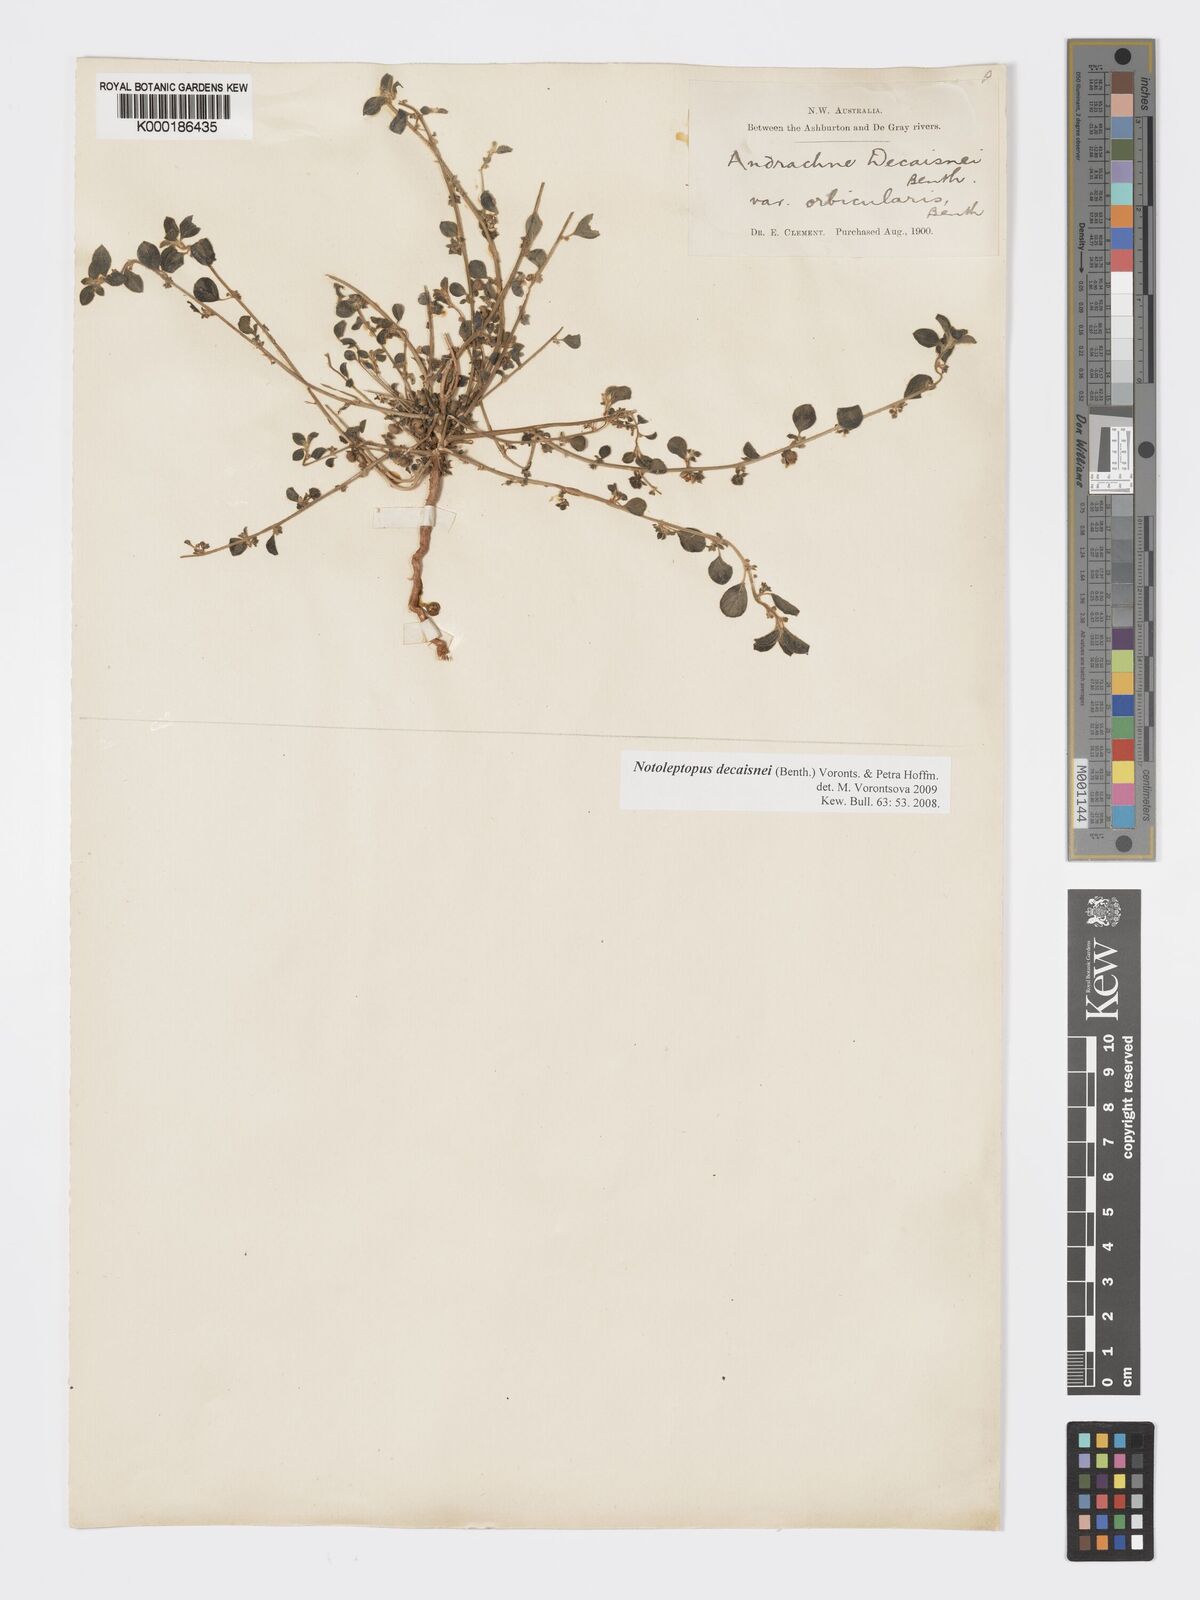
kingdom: Plantae
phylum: Tracheophyta
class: Magnoliopsida
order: Malpighiales
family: Phyllanthaceae
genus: Notoleptopus
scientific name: Notoleptopus decaisnei
